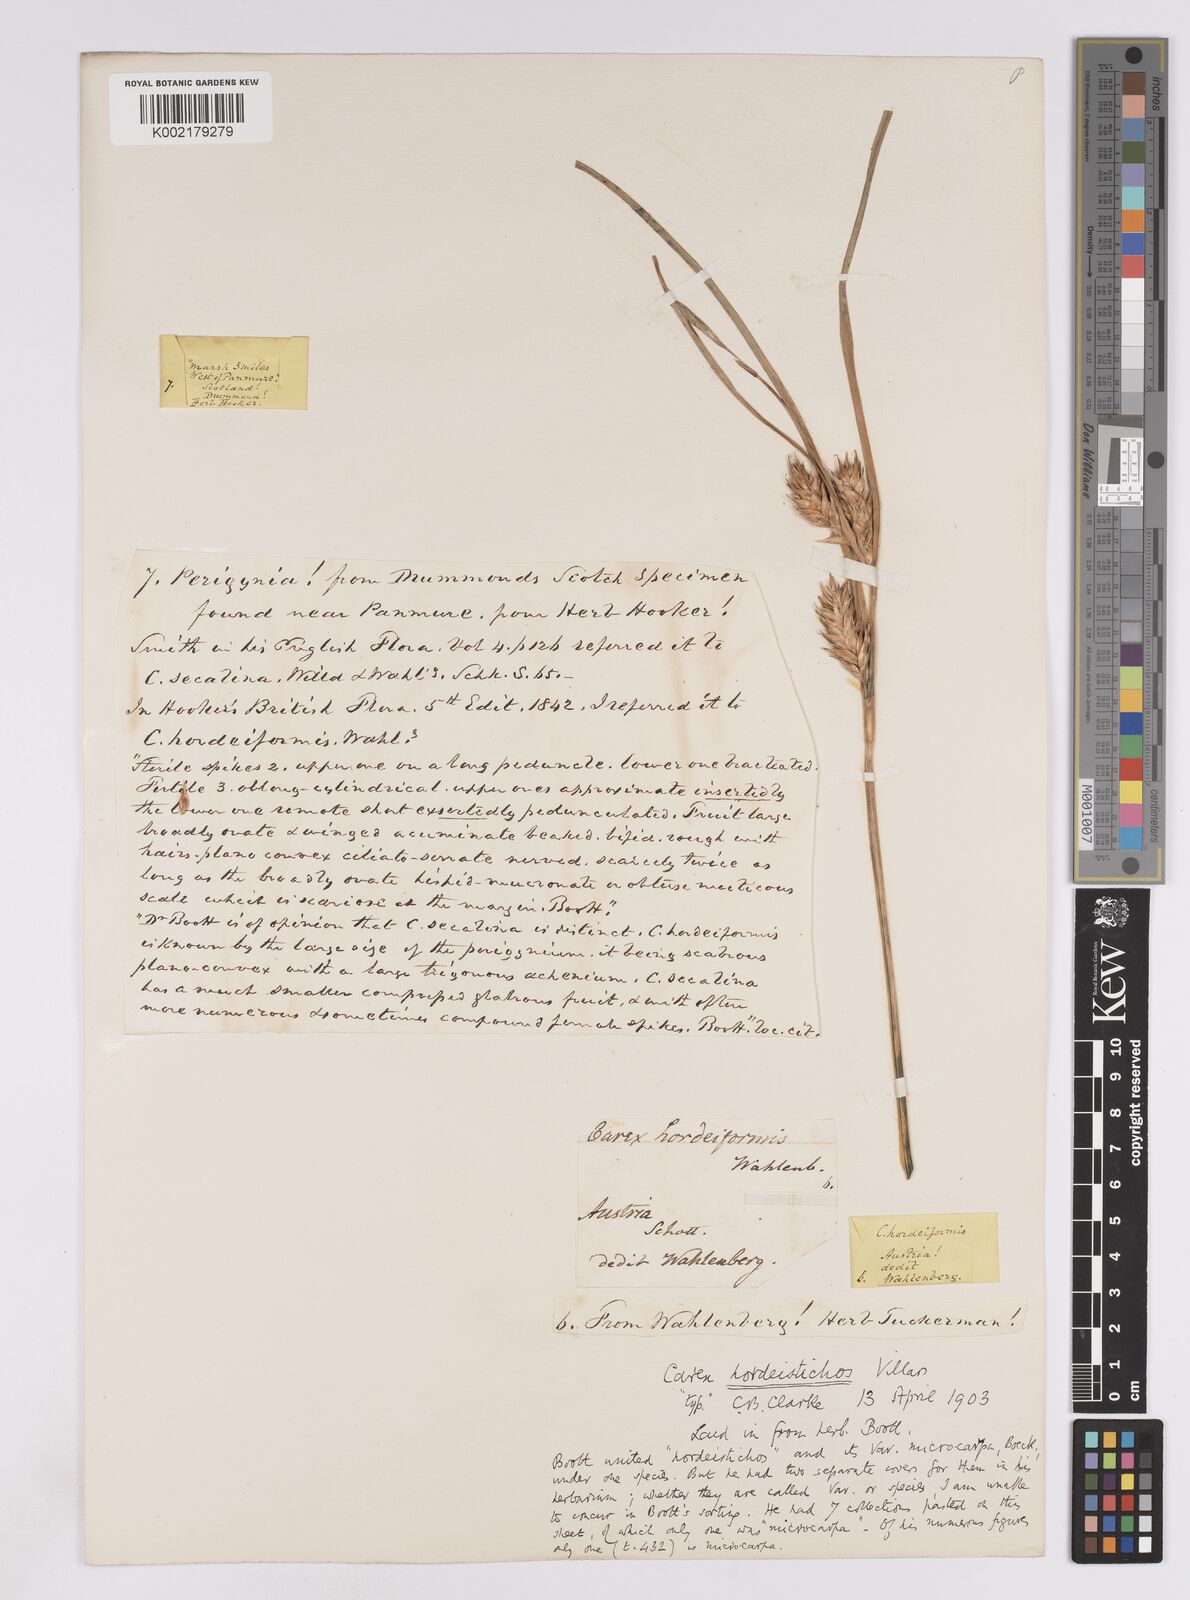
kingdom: Plantae
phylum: Tracheophyta
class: Liliopsida
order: Poales
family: Cyperaceae
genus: Carex
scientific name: Carex hordeistichos
